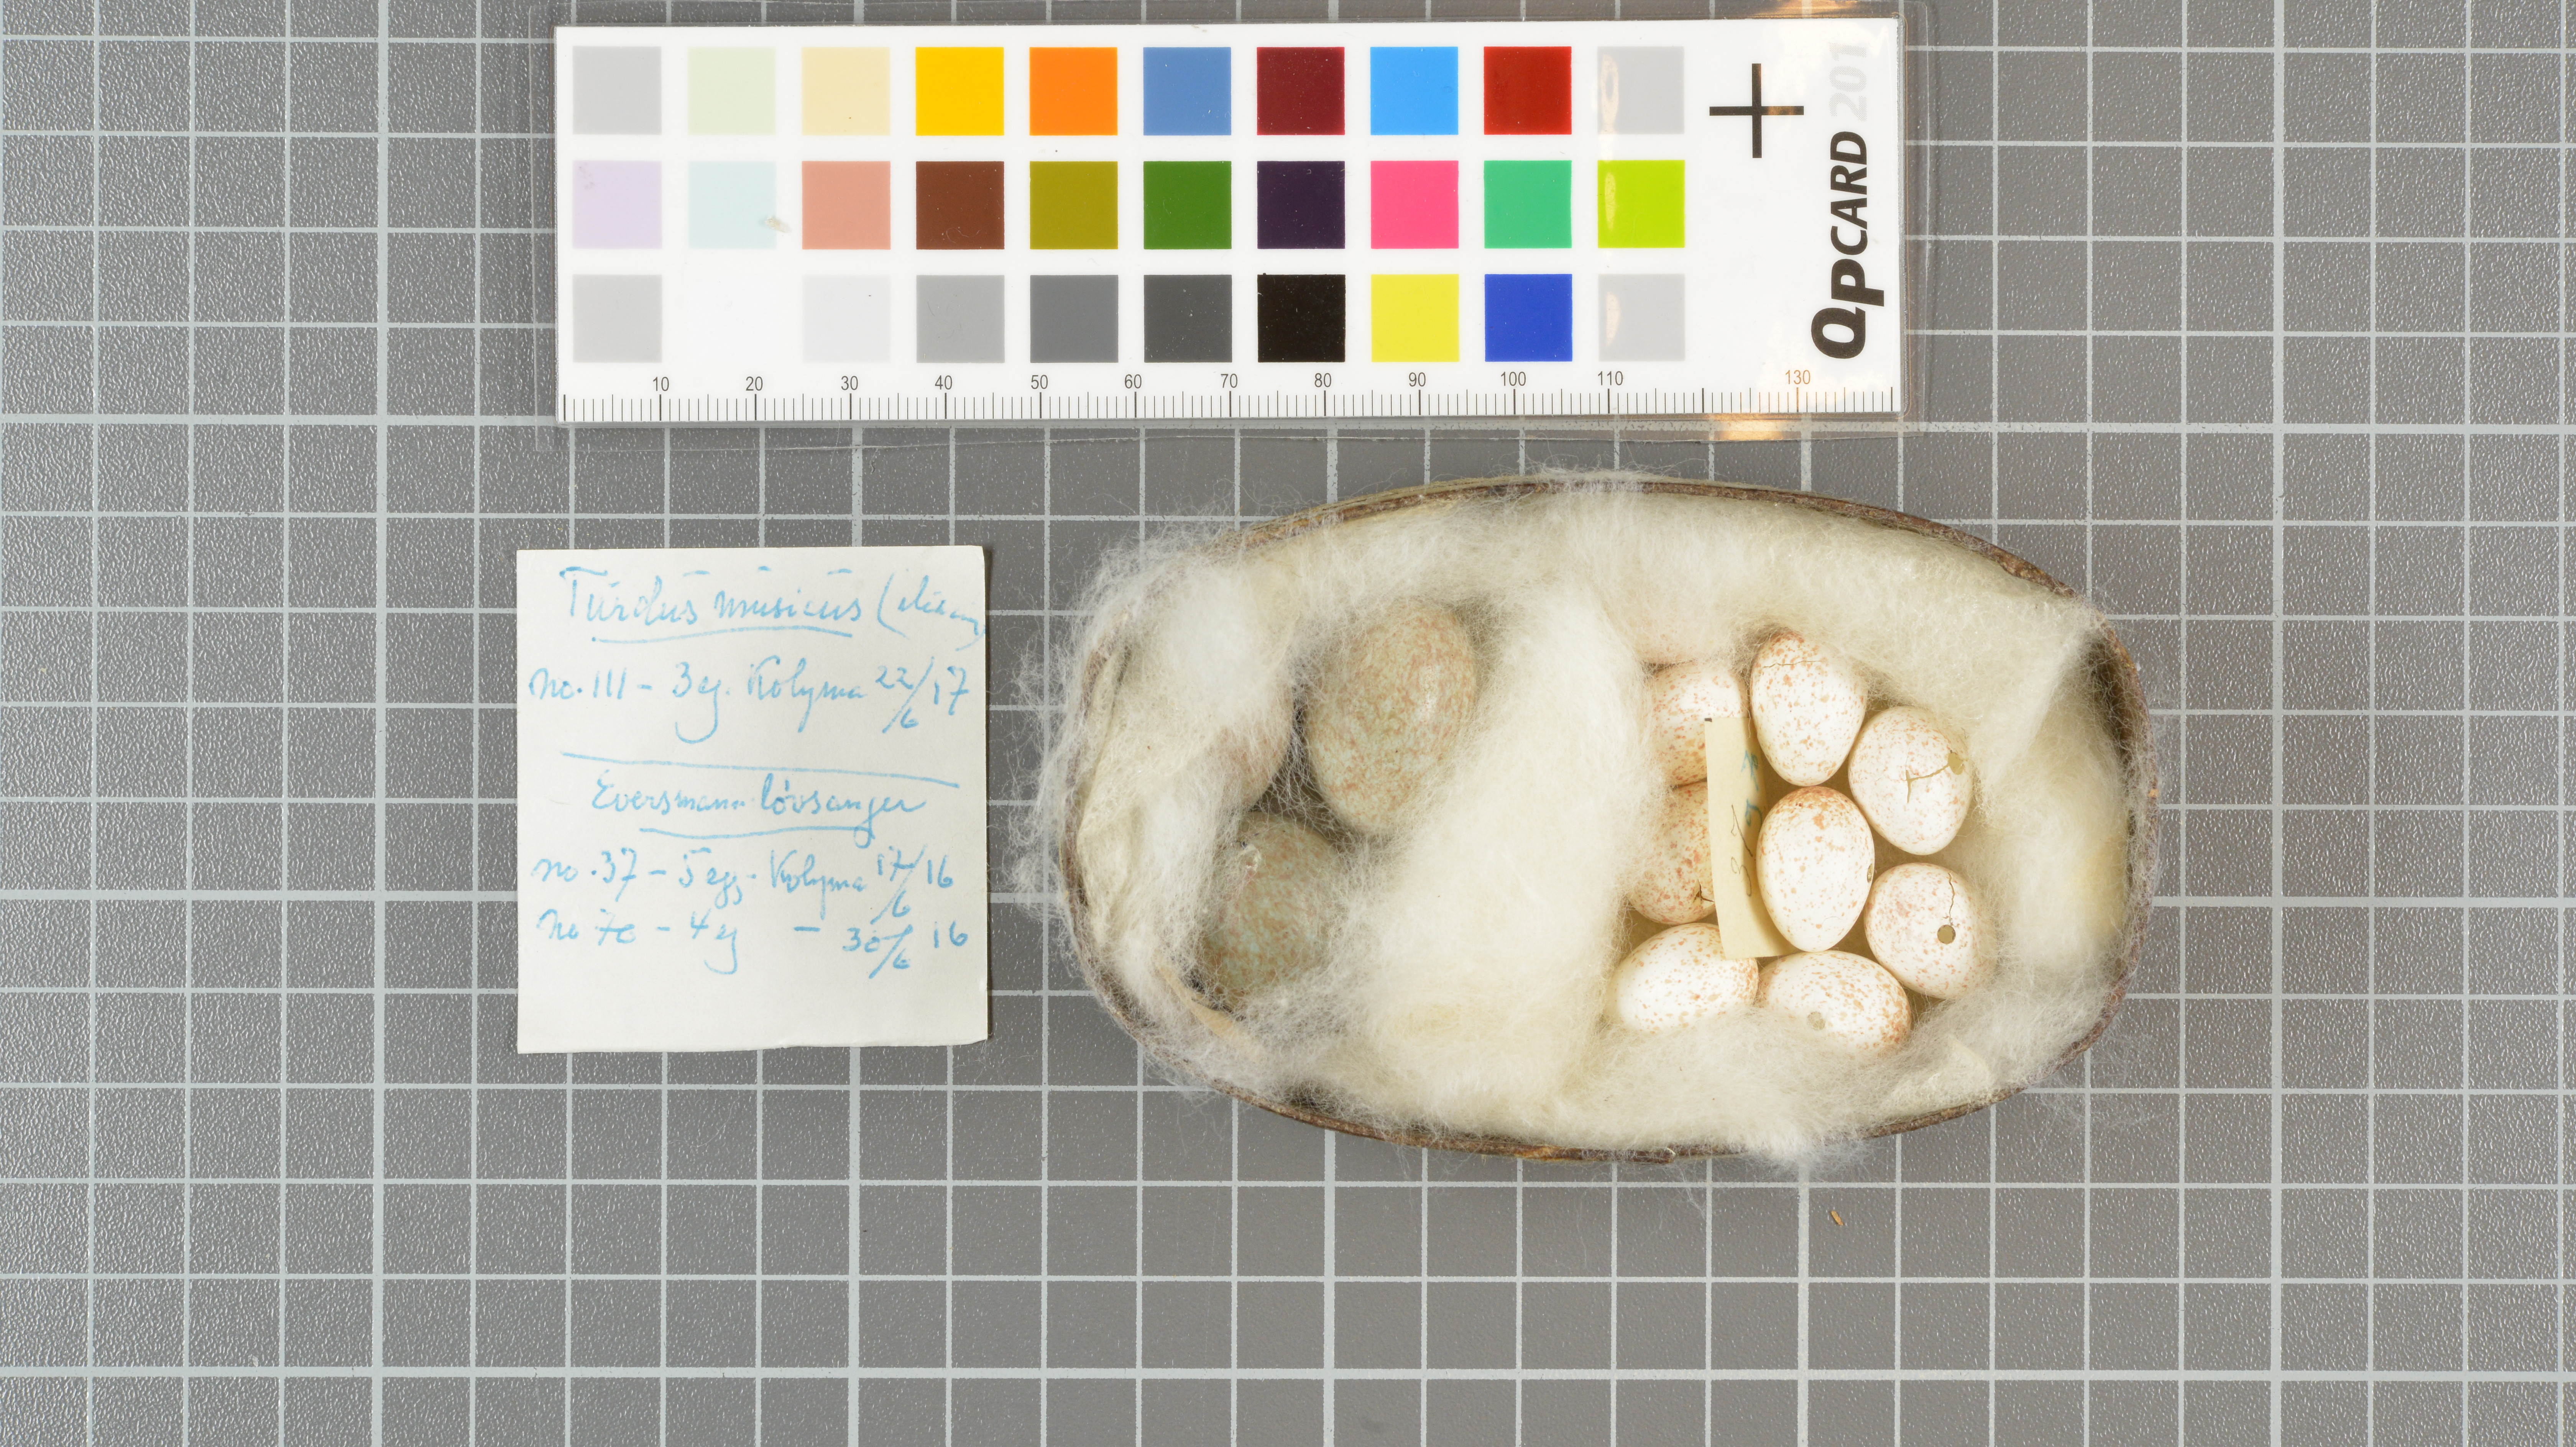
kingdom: Animalia
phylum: Chordata
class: Aves
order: Passeriformes
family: Turdidae
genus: Turdus
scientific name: Turdus iliacus
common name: Redwing
